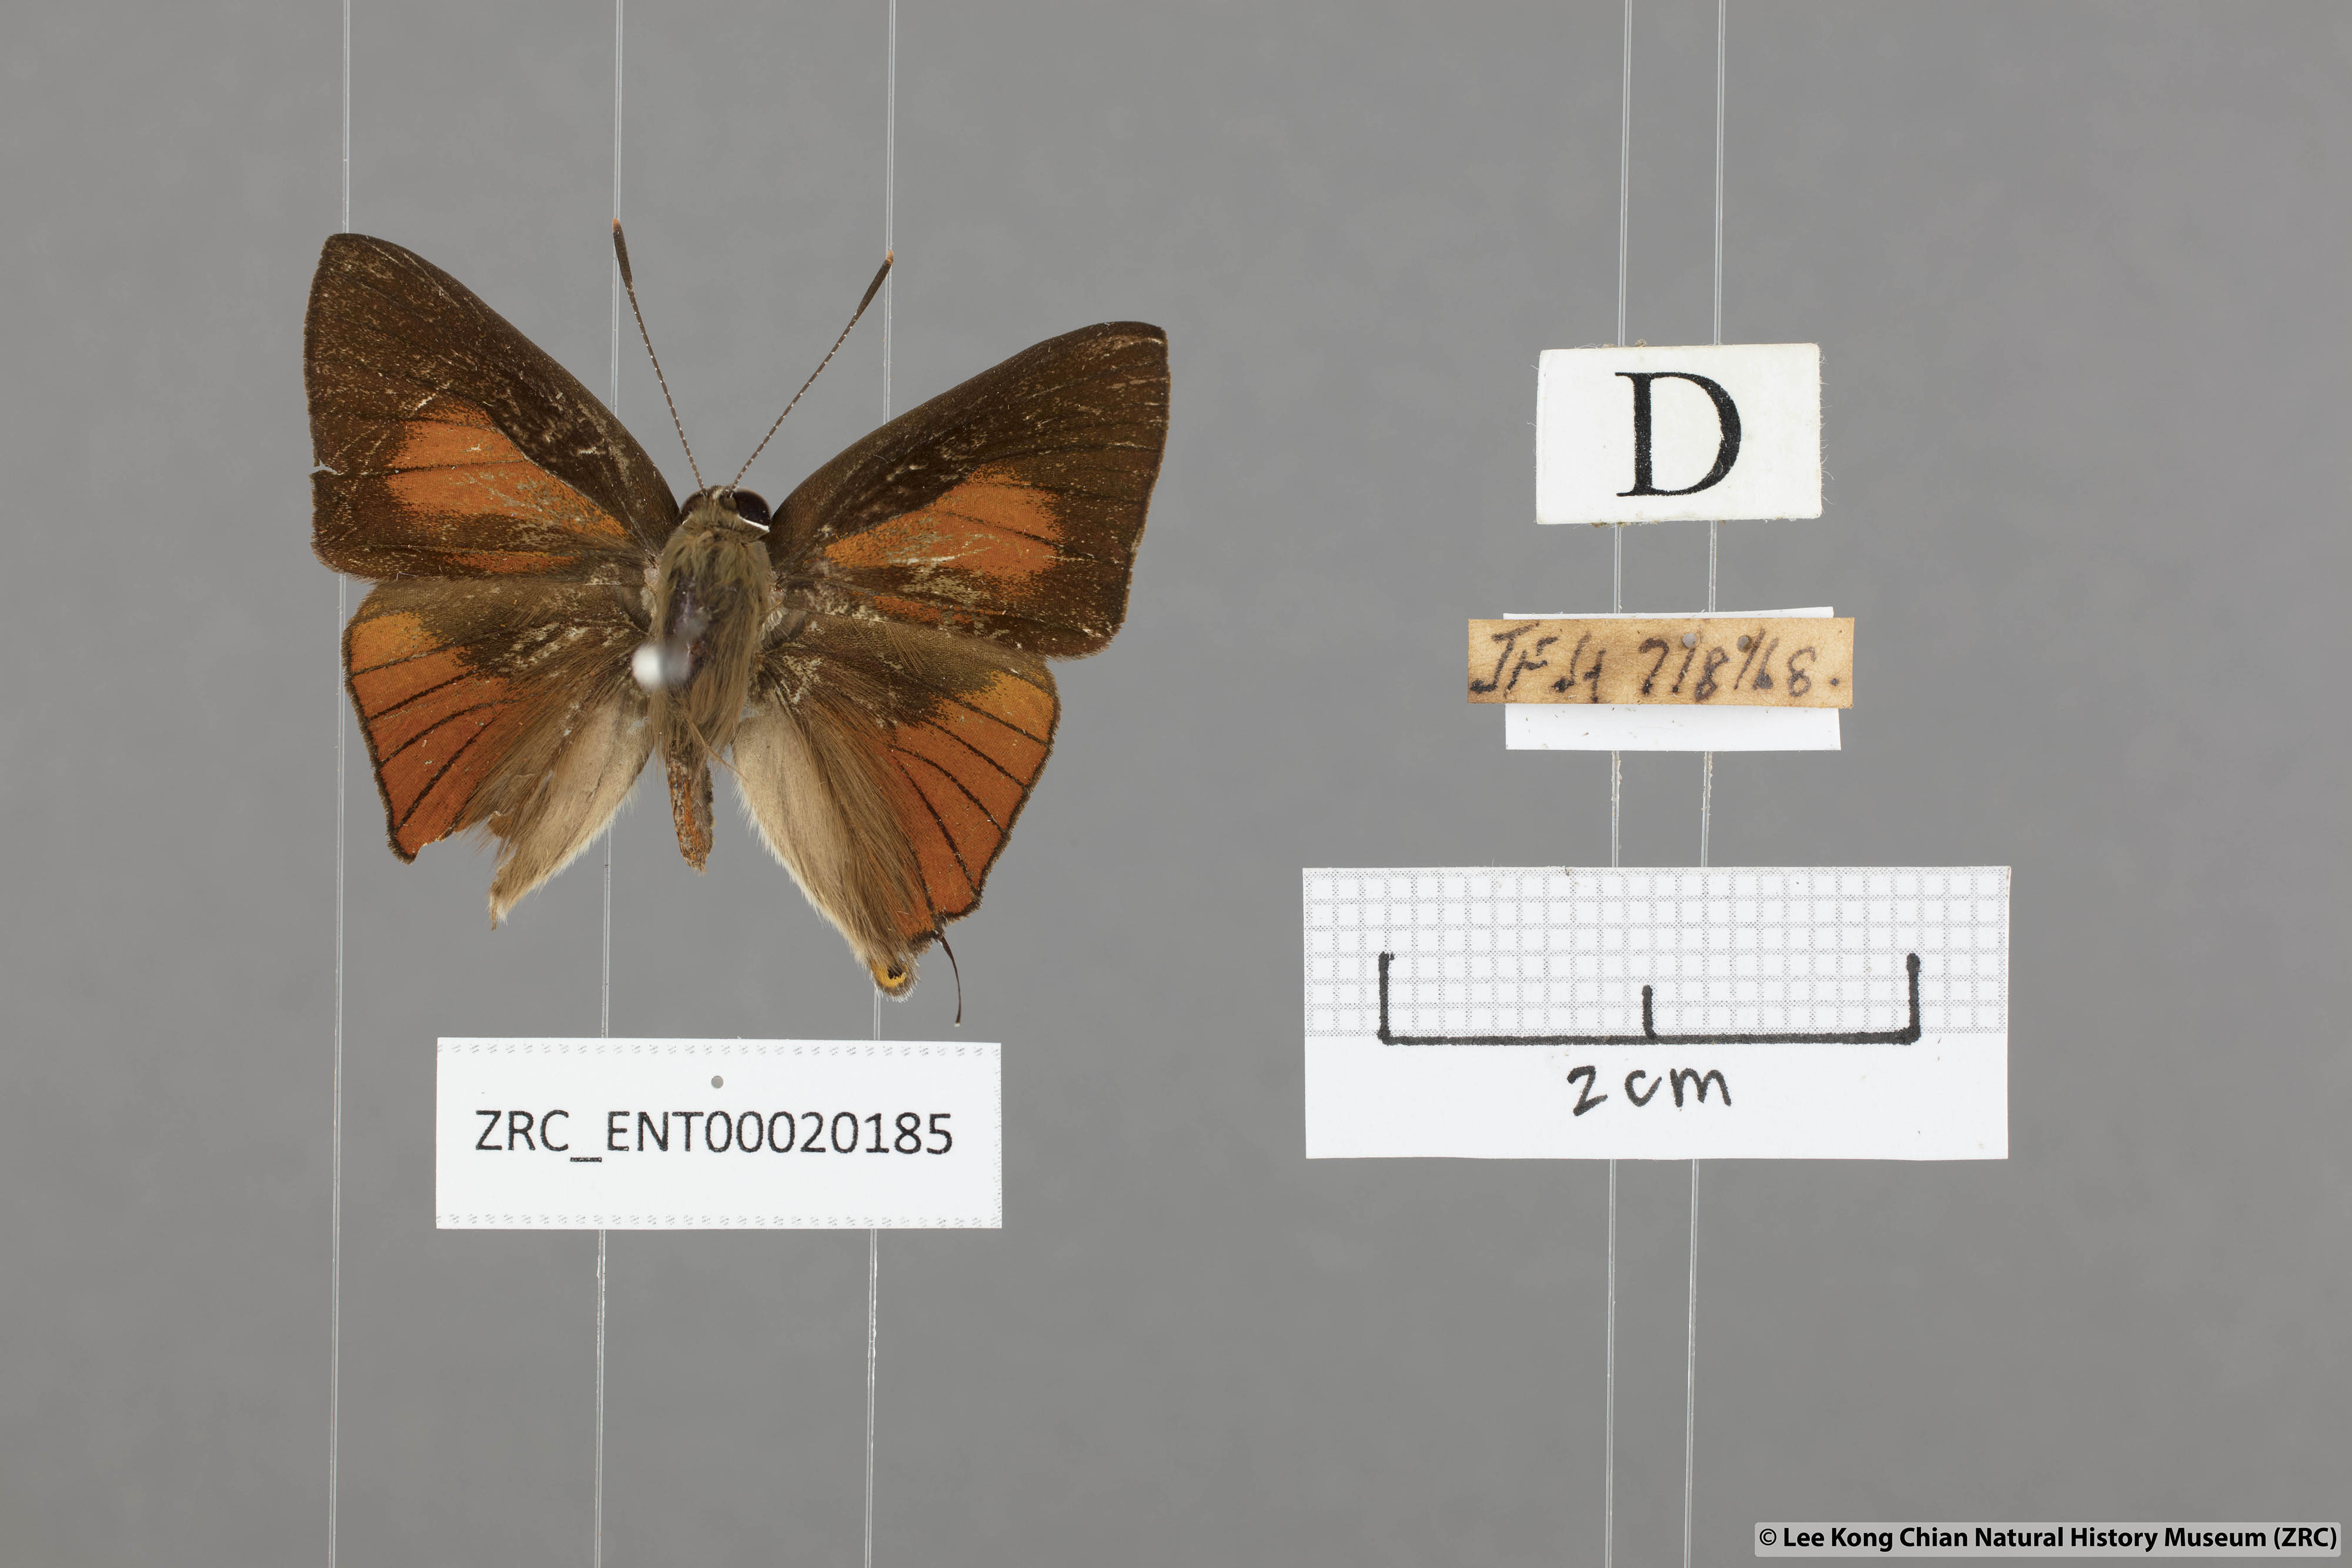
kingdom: Animalia
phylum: Arthropoda
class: Insecta
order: Lepidoptera
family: Lycaenidae
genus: Deudorix
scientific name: Deudorix epijarbas
